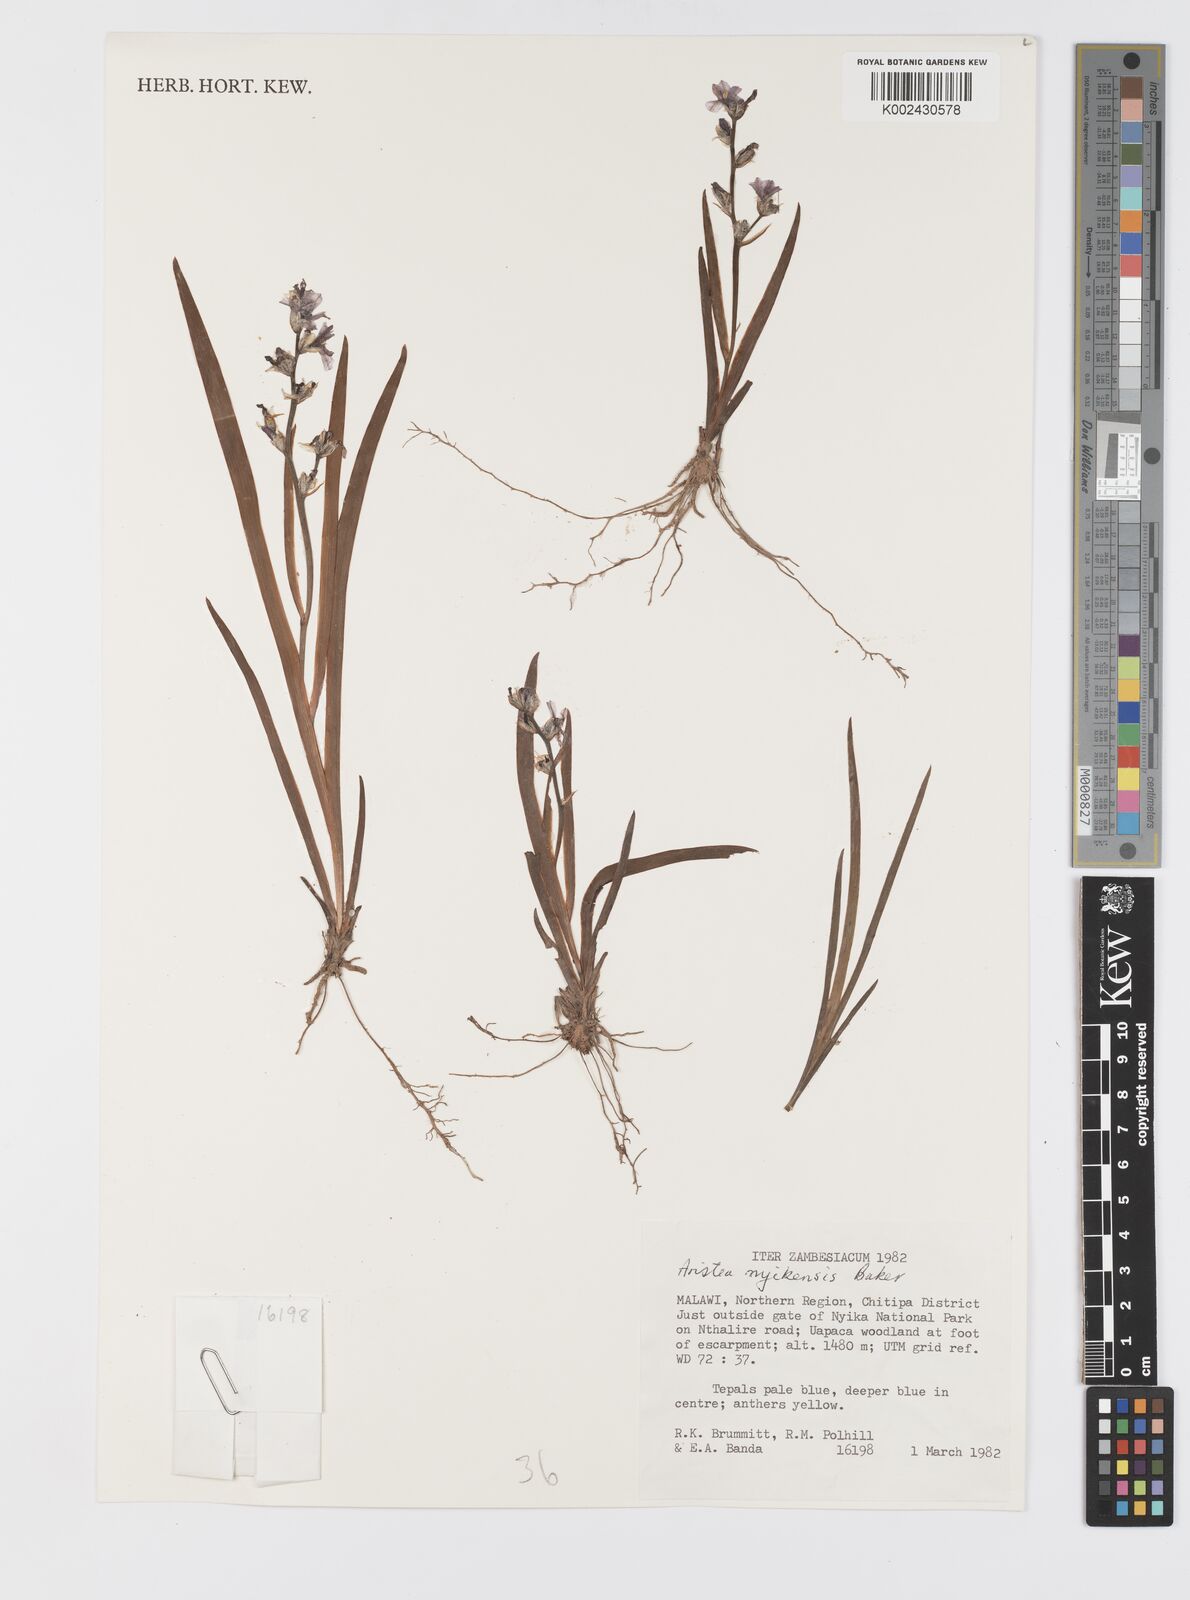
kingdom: Plantae
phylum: Tracheophyta
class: Liliopsida
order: Asparagales
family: Iridaceae
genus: Aristea
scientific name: Aristea nyikensis
